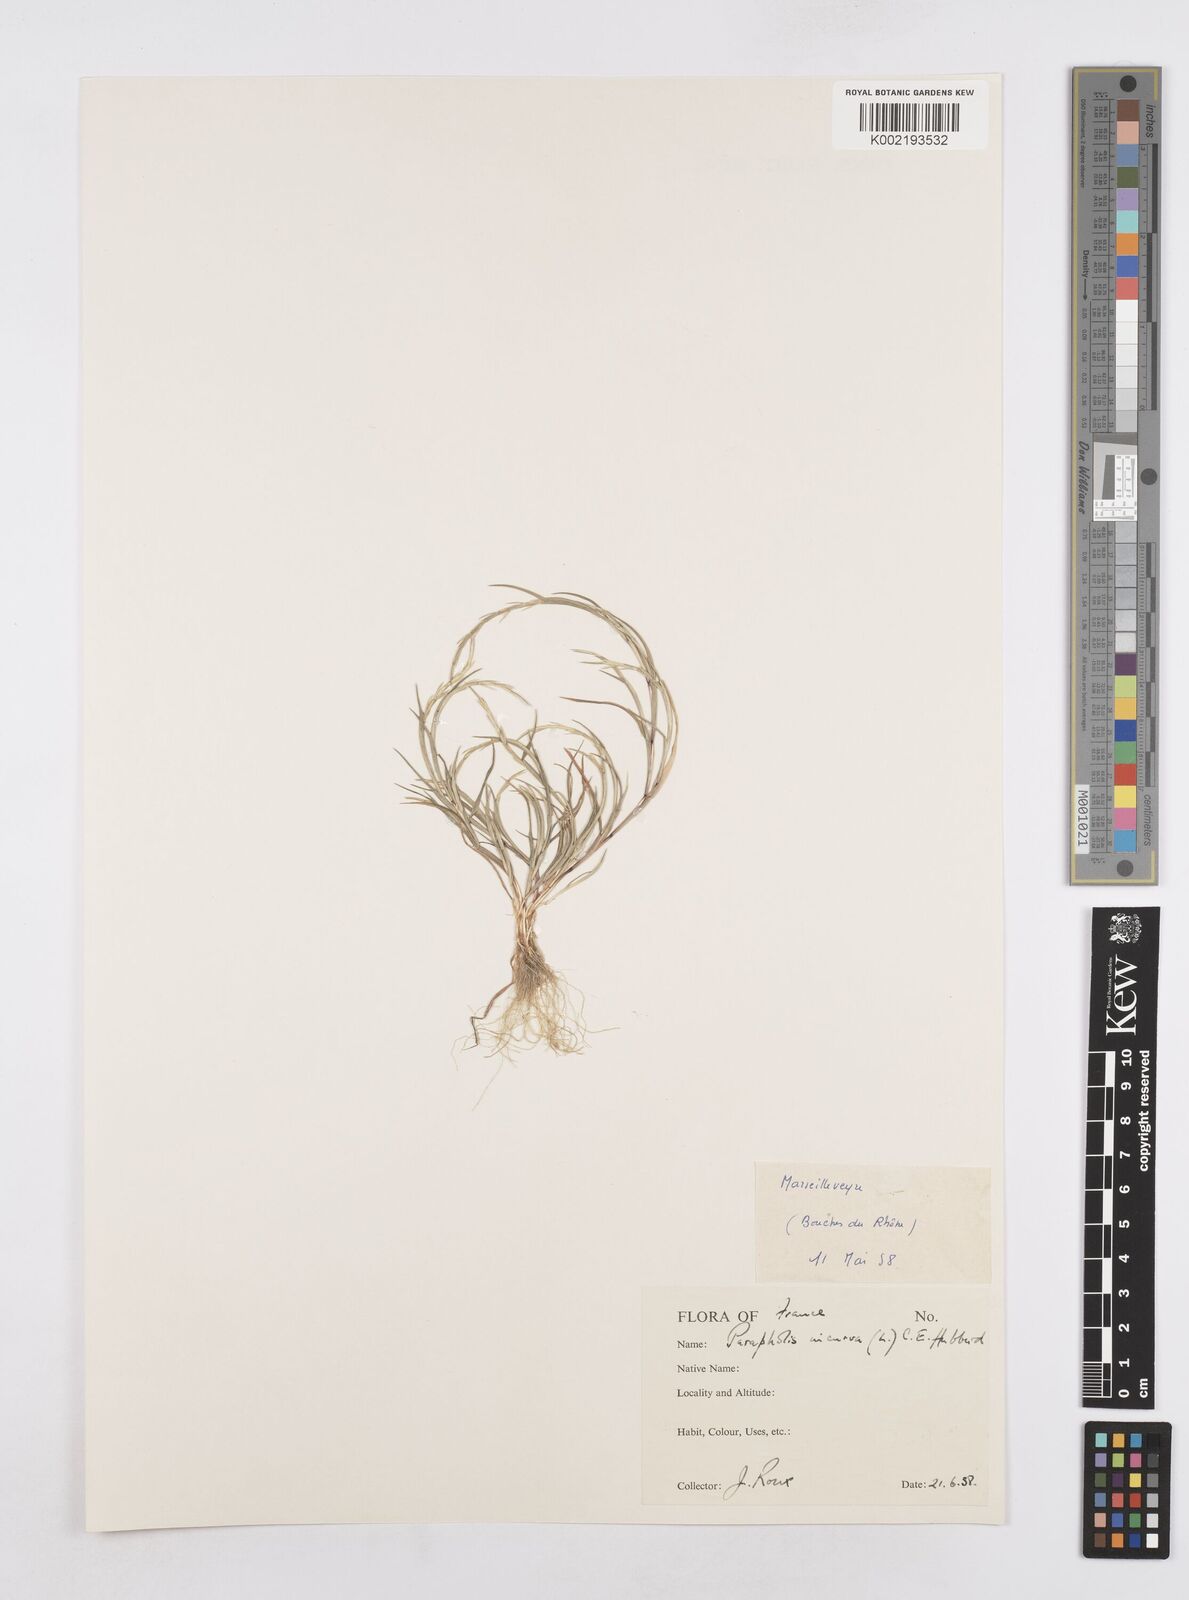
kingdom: Plantae
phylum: Tracheophyta
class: Liliopsida
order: Poales
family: Poaceae
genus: Parapholis
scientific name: Parapholis incurva
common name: Curved sicklegrass
